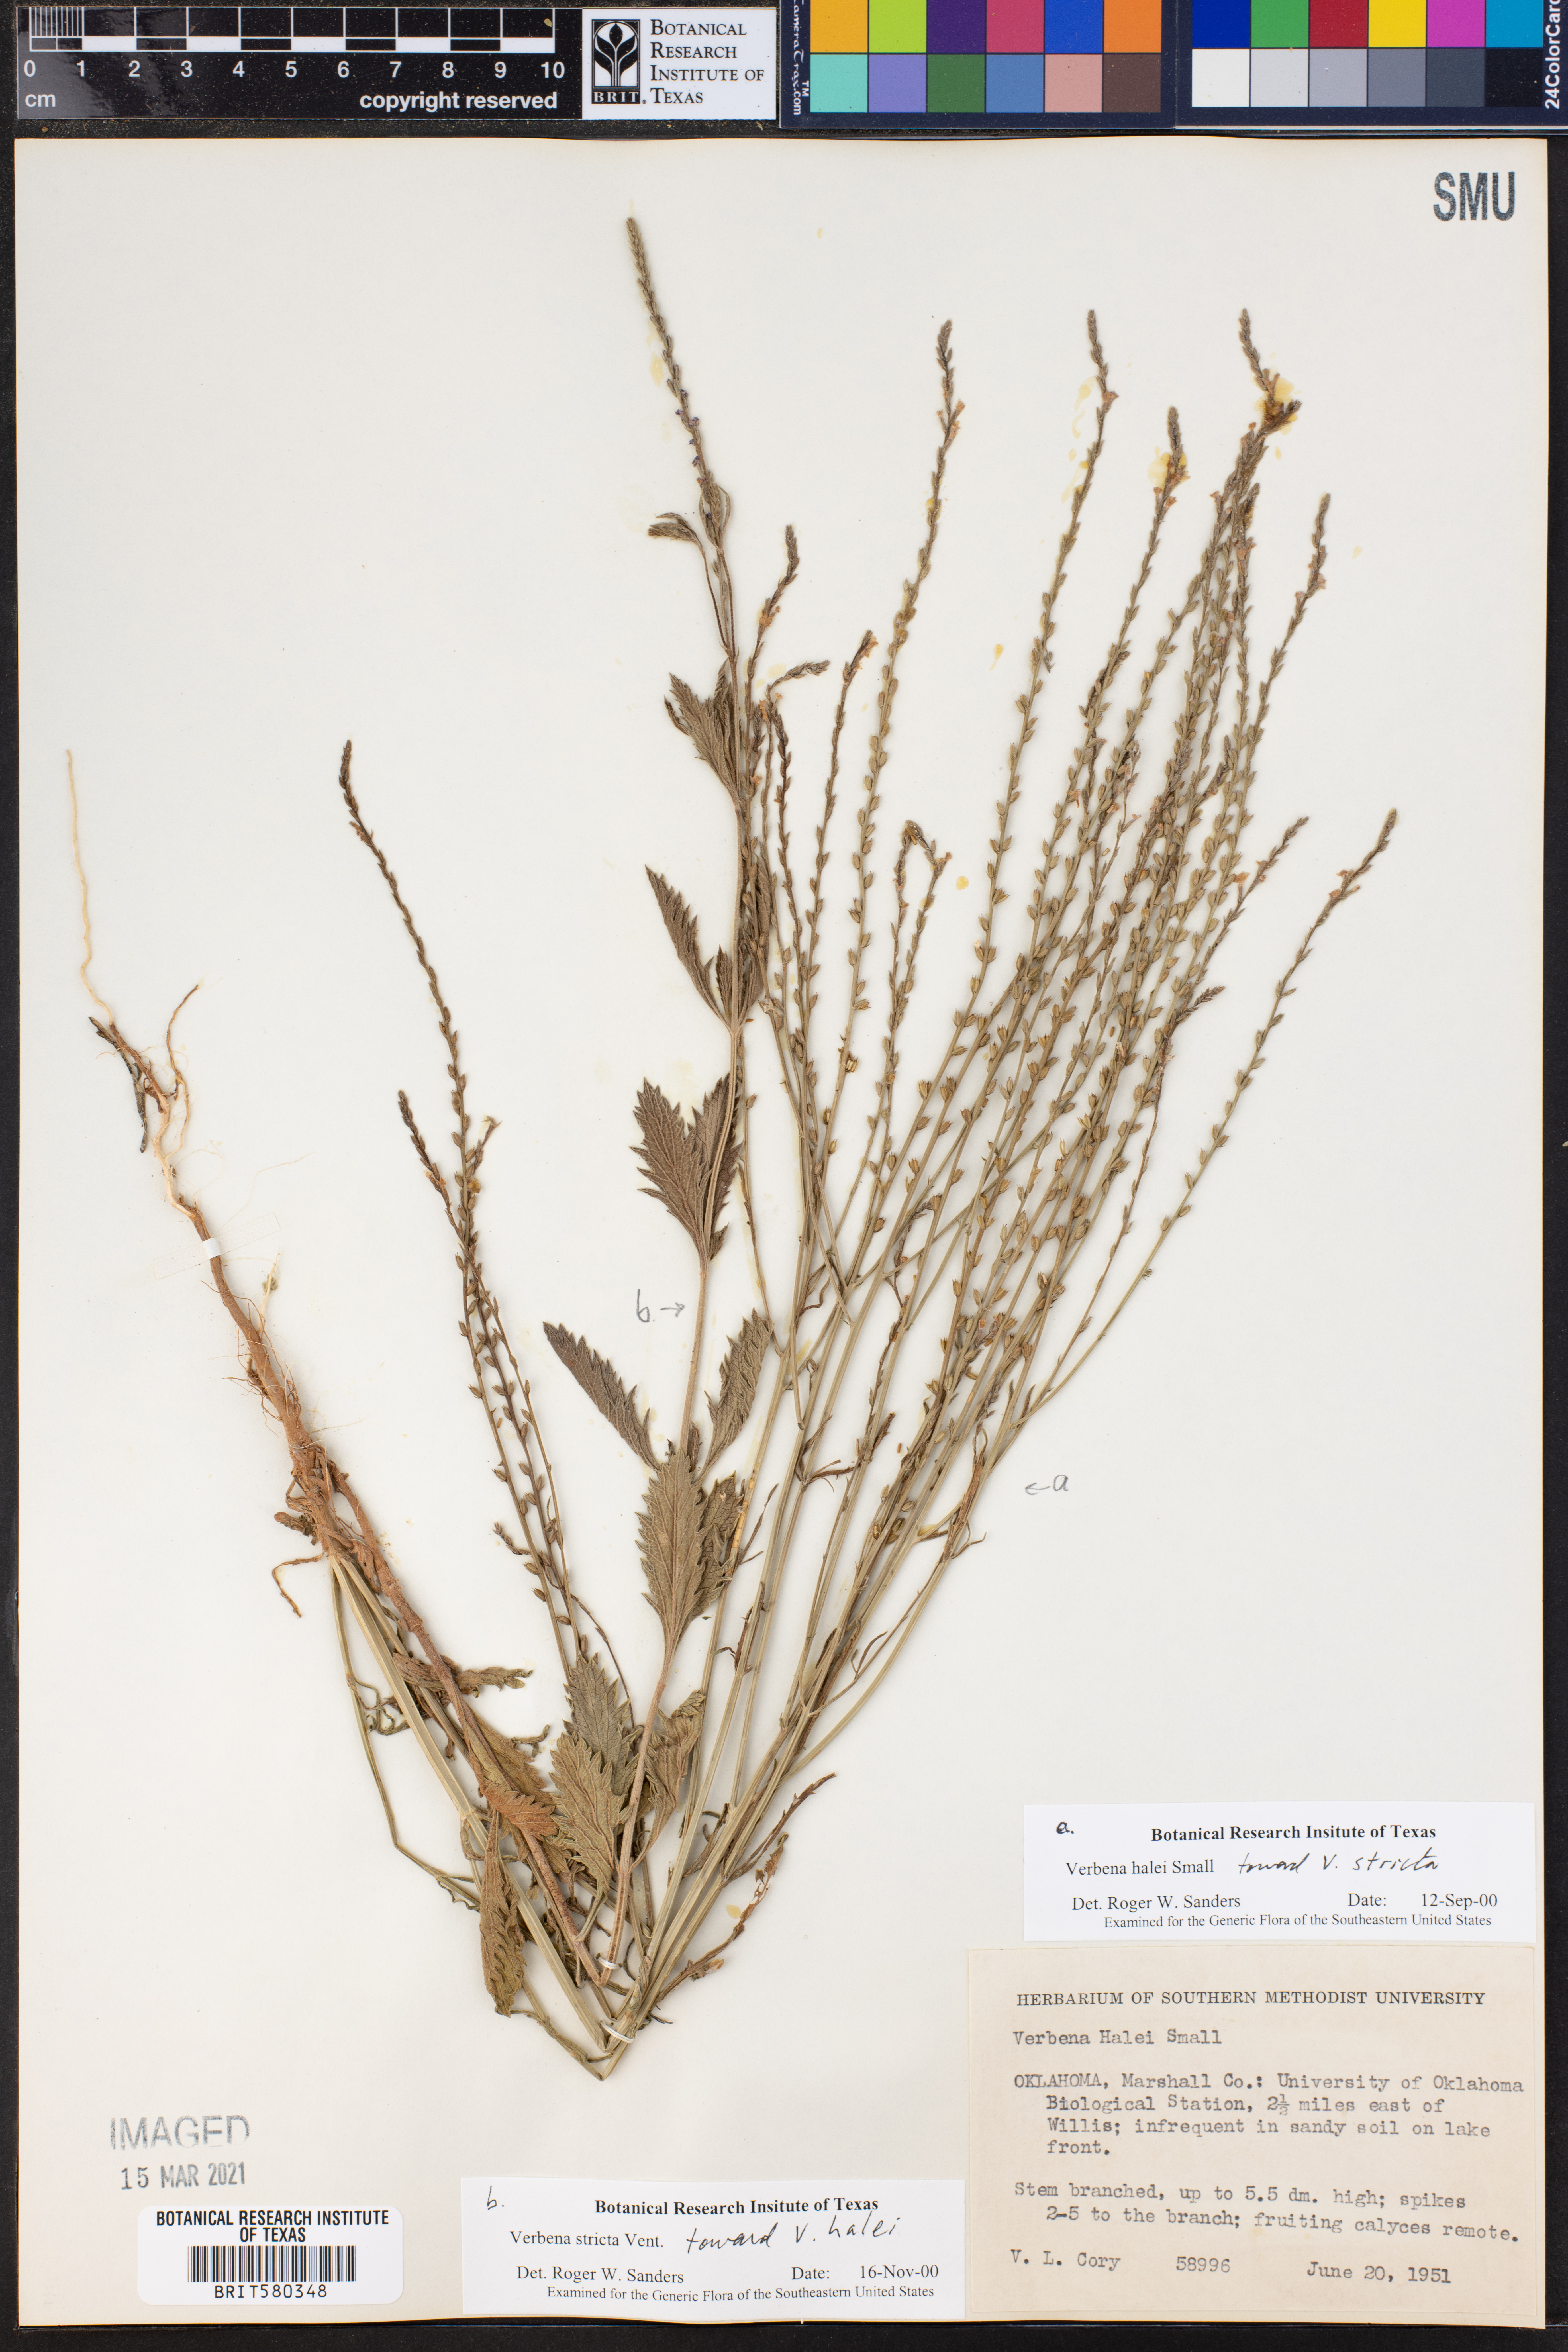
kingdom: Plantae
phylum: Tracheophyta
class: Magnoliopsida
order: Lamiales
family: Verbenaceae
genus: Verbena
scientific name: Verbena halei
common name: Texas vervain
